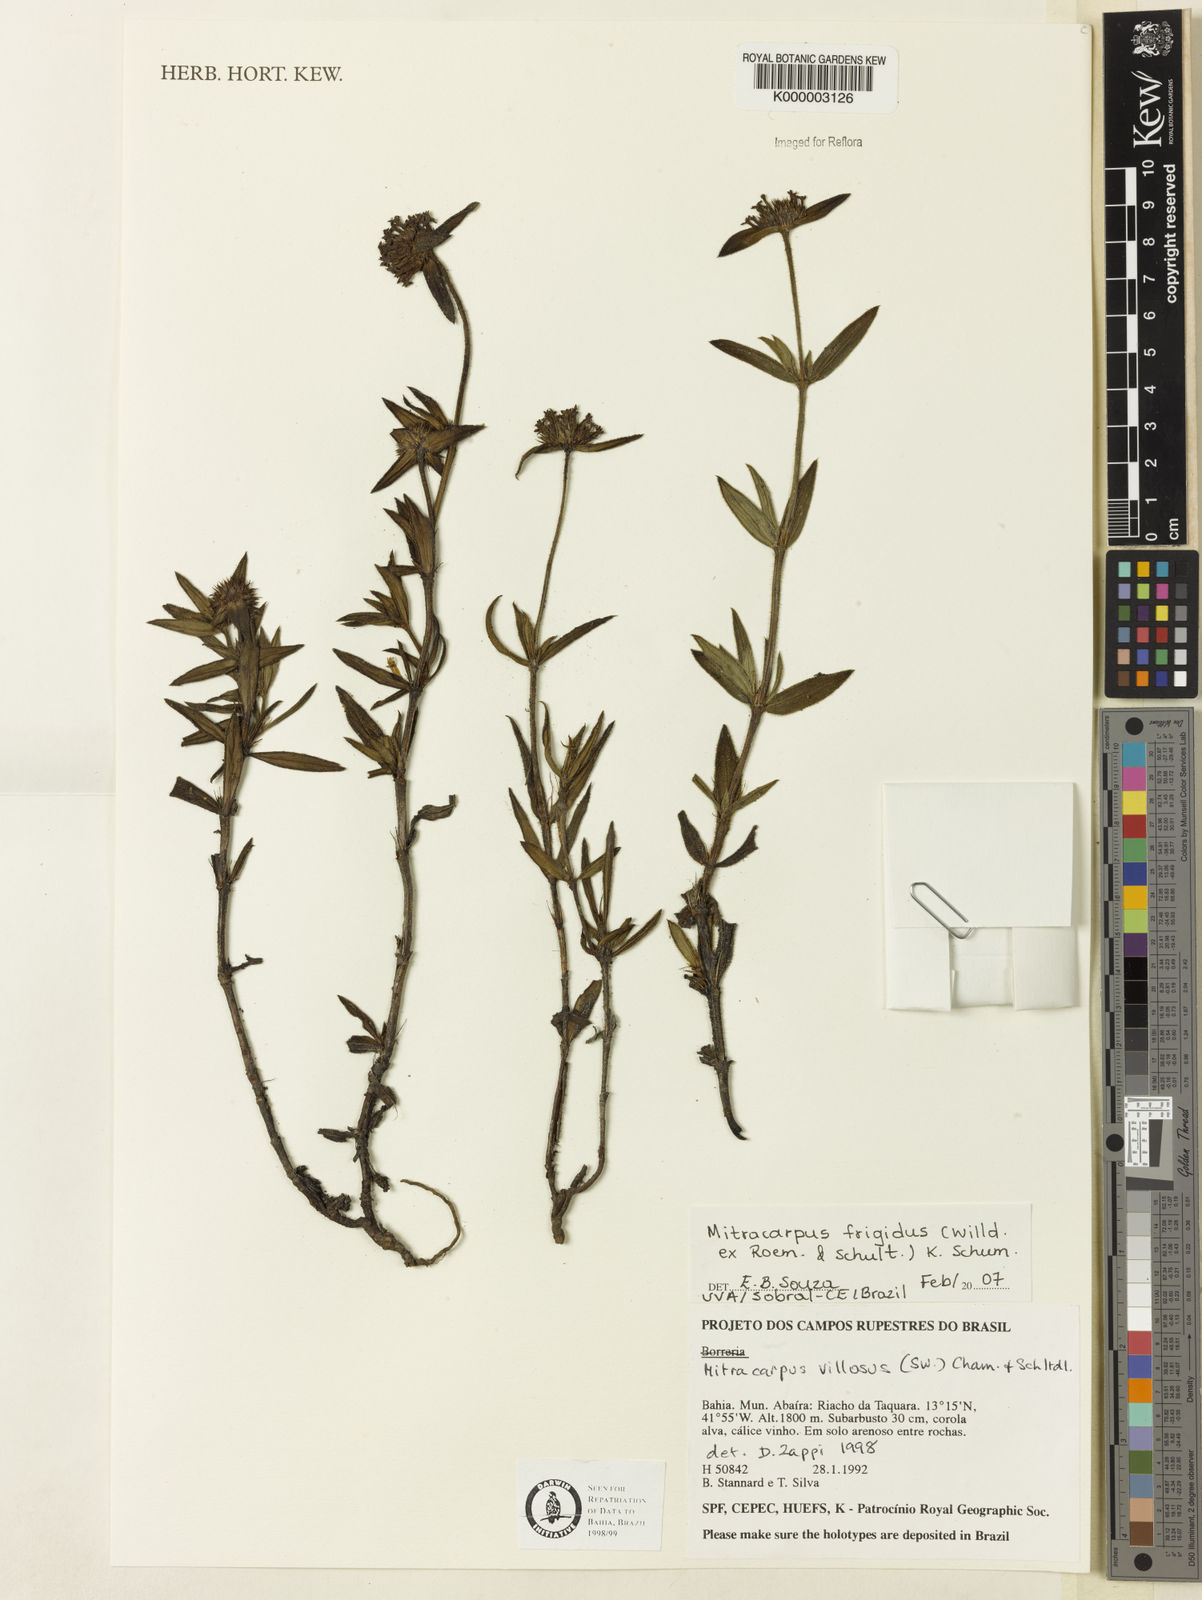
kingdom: Plantae
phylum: Tracheophyta
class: Magnoliopsida
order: Gentianales
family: Rubiaceae
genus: Mitracarpus
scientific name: Mitracarpus frigidus
